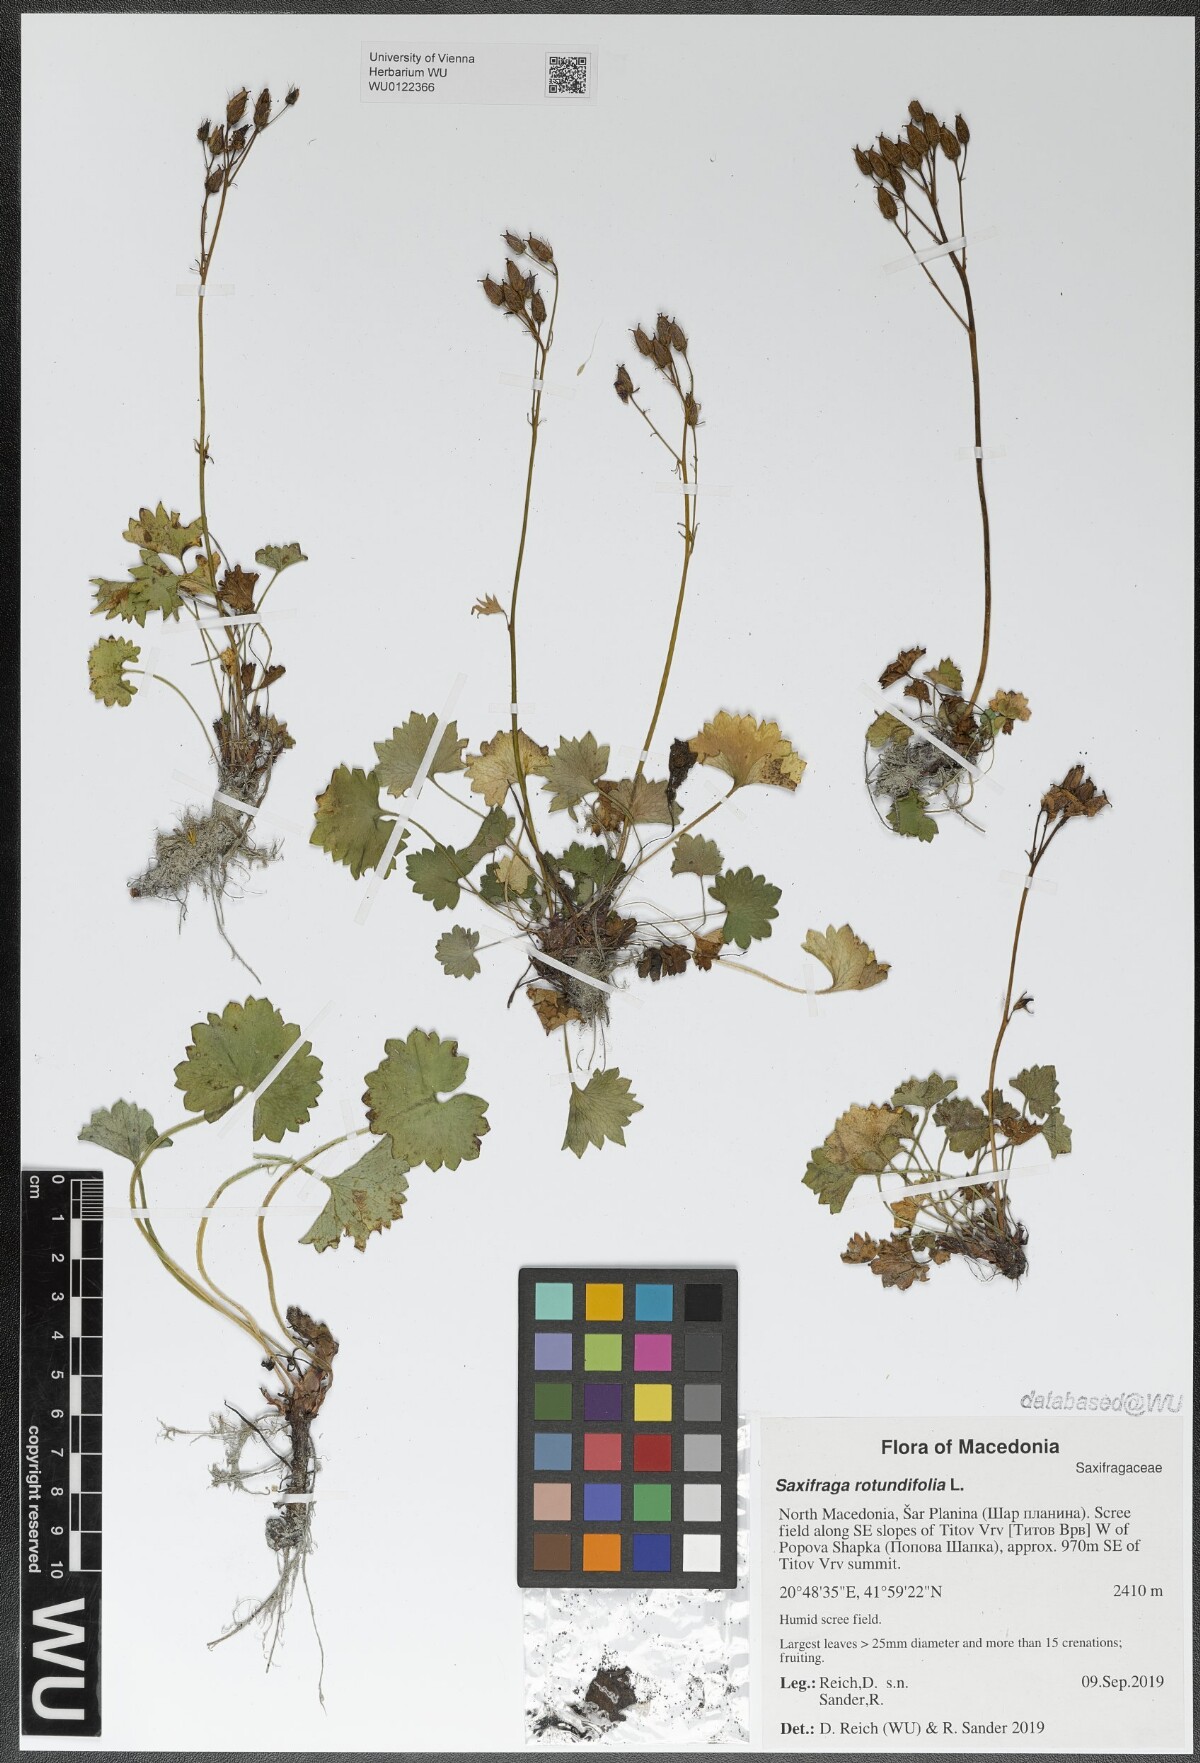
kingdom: Plantae
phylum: Tracheophyta
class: Magnoliopsida
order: Saxifragales
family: Saxifragaceae
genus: Saxifraga
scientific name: Saxifraga rotundifolia
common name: Round-leaved saxifrage
